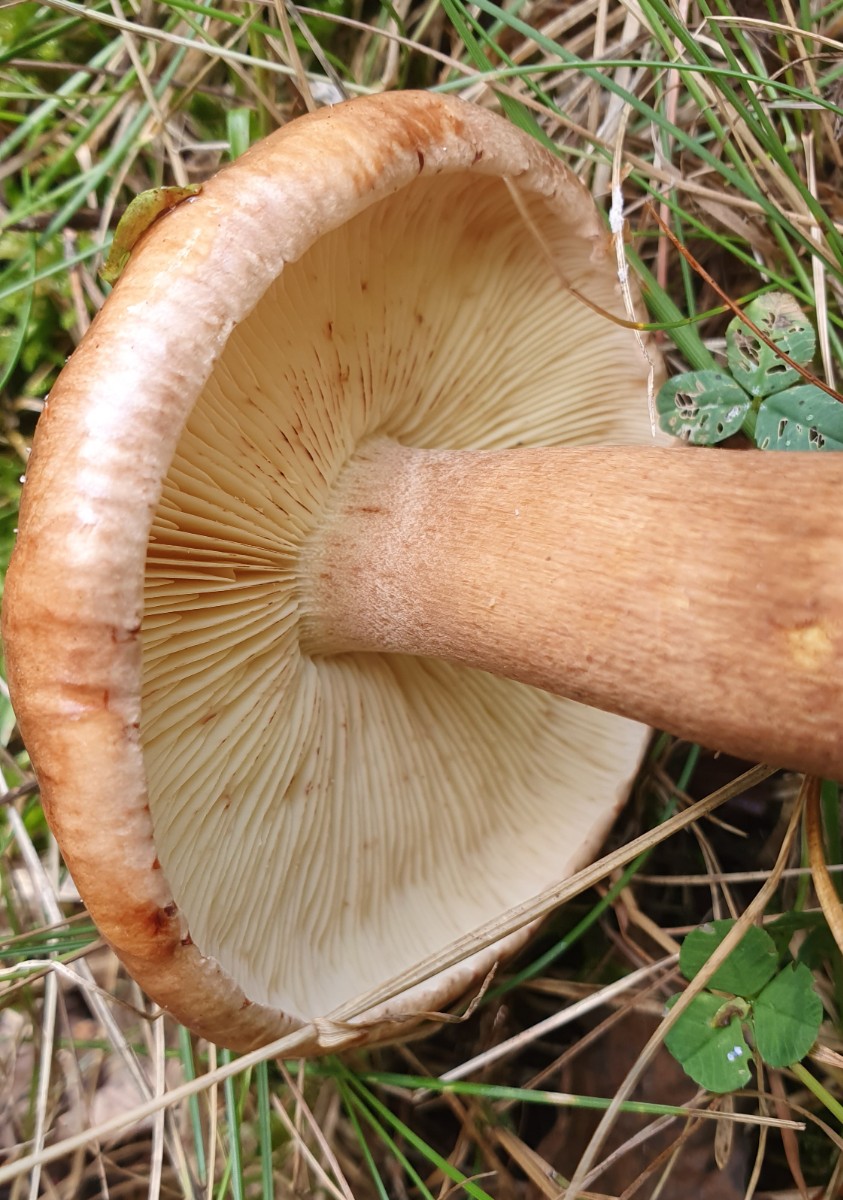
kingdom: Fungi
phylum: Basidiomycota
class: Agaricomycetes
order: Agaricales
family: Tricholomataceae
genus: Tricholoma
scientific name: Tricholoma fulvum
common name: birke-ridderhat
